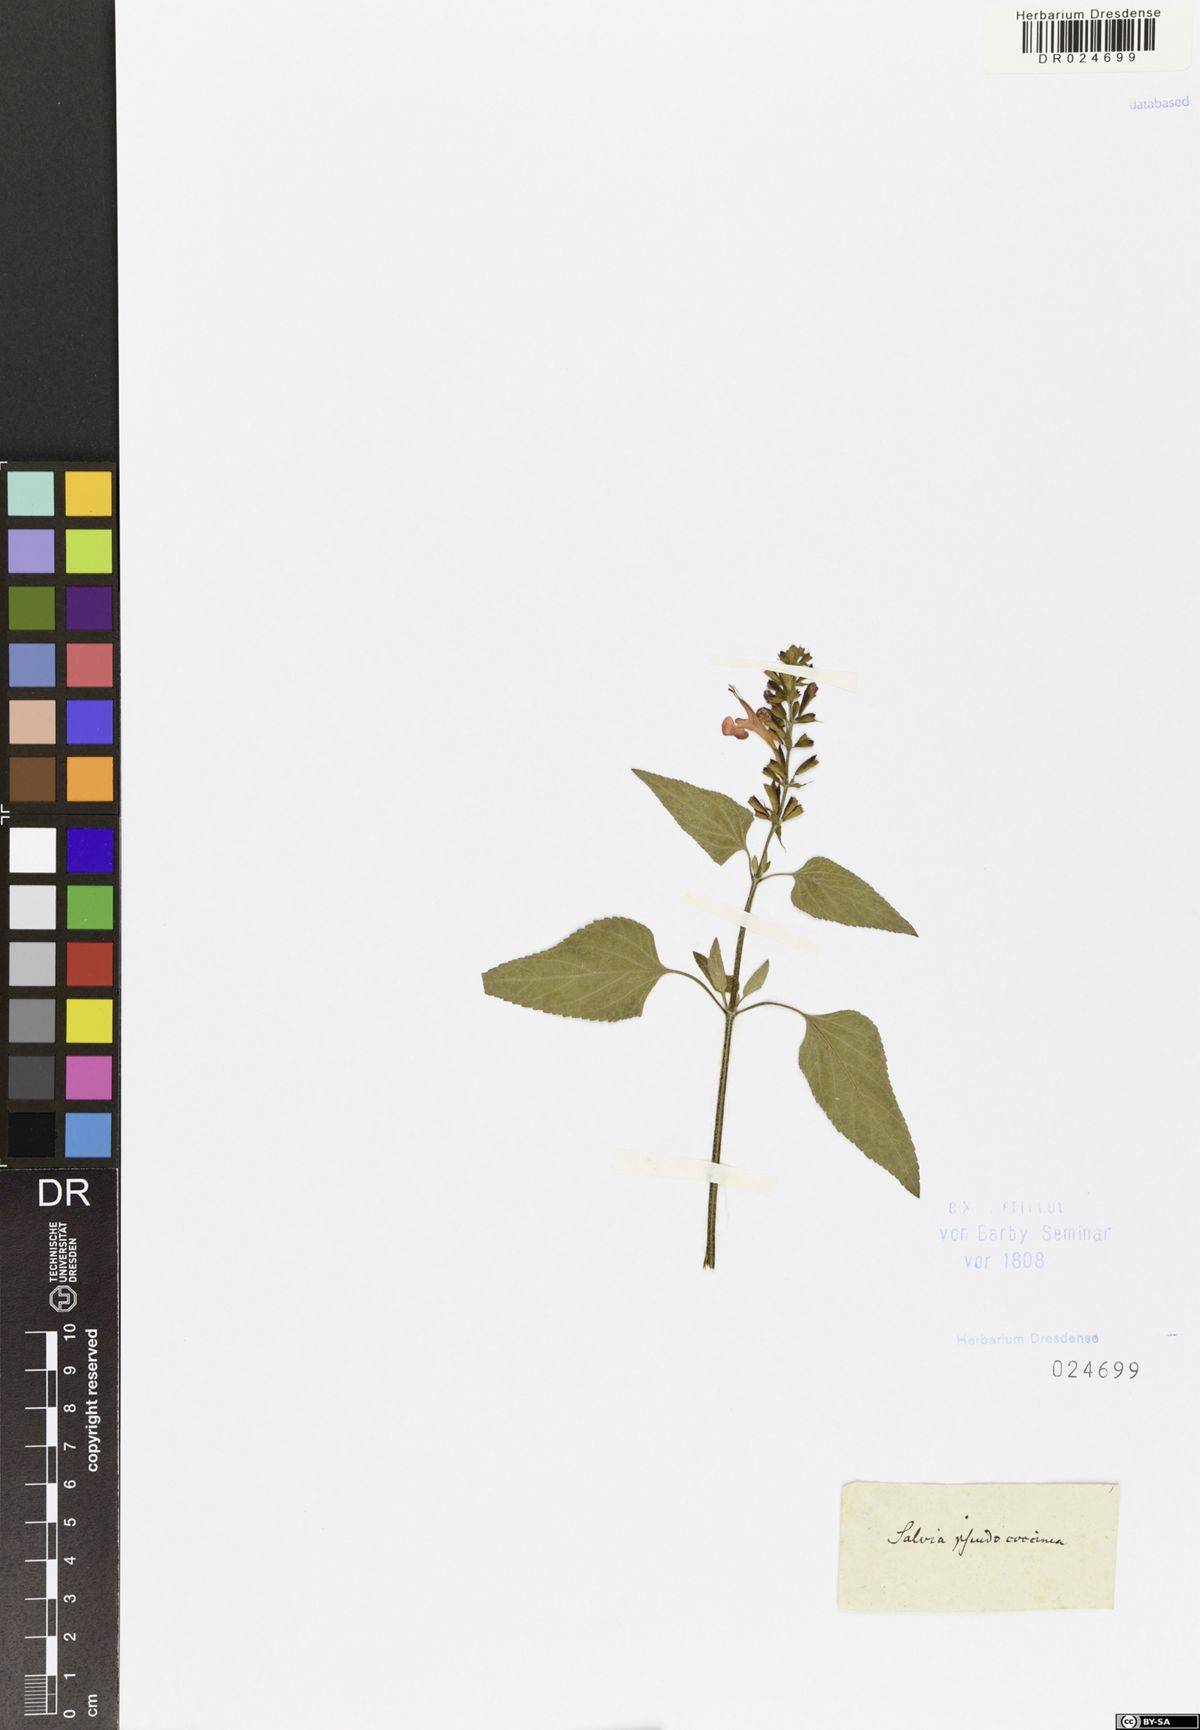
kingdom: Plantae
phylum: Tracheophyta
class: Magnoliopsida
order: Lamiales
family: Lamiaceae
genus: Salvia
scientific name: Salvia coccinea
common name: Blood sage
